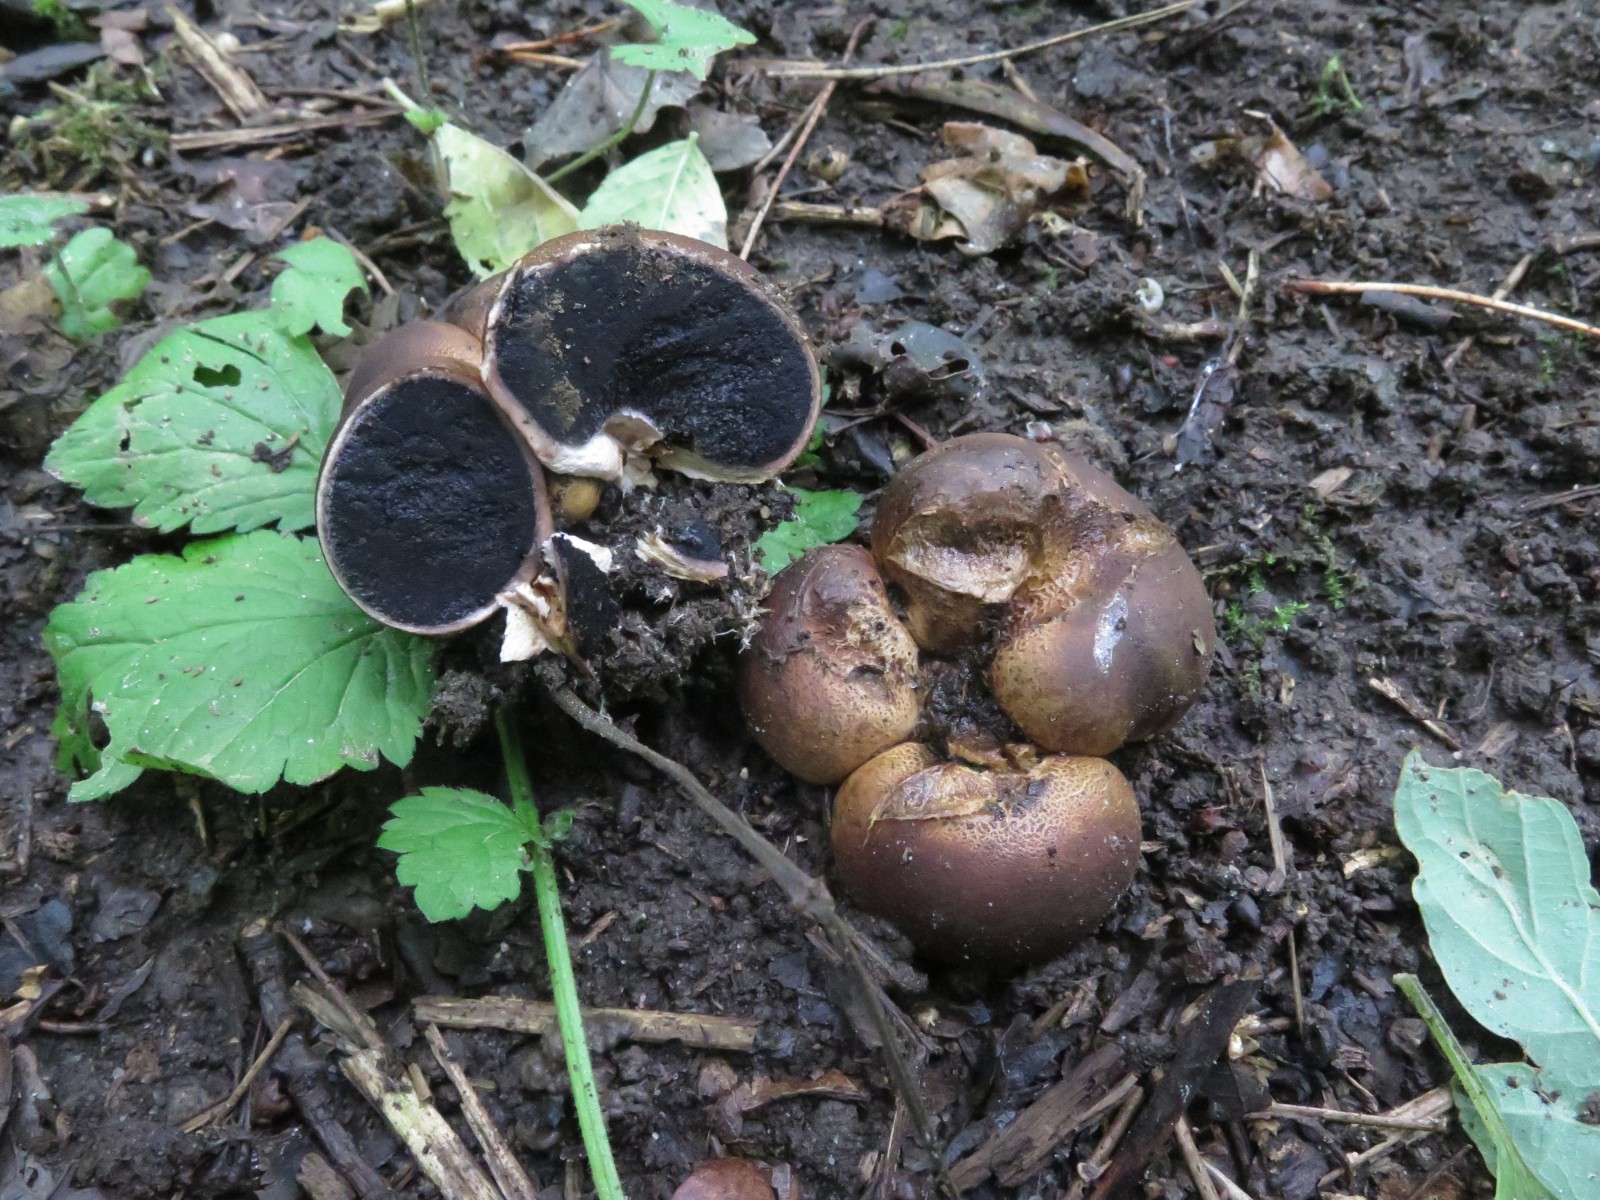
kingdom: Fungi
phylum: Basidiomycota
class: Agaricomycetes
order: Boletales
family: Sclerodermataceae
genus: Scleroderma
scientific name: Scleroderma areolatum
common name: plettet bruskbold
